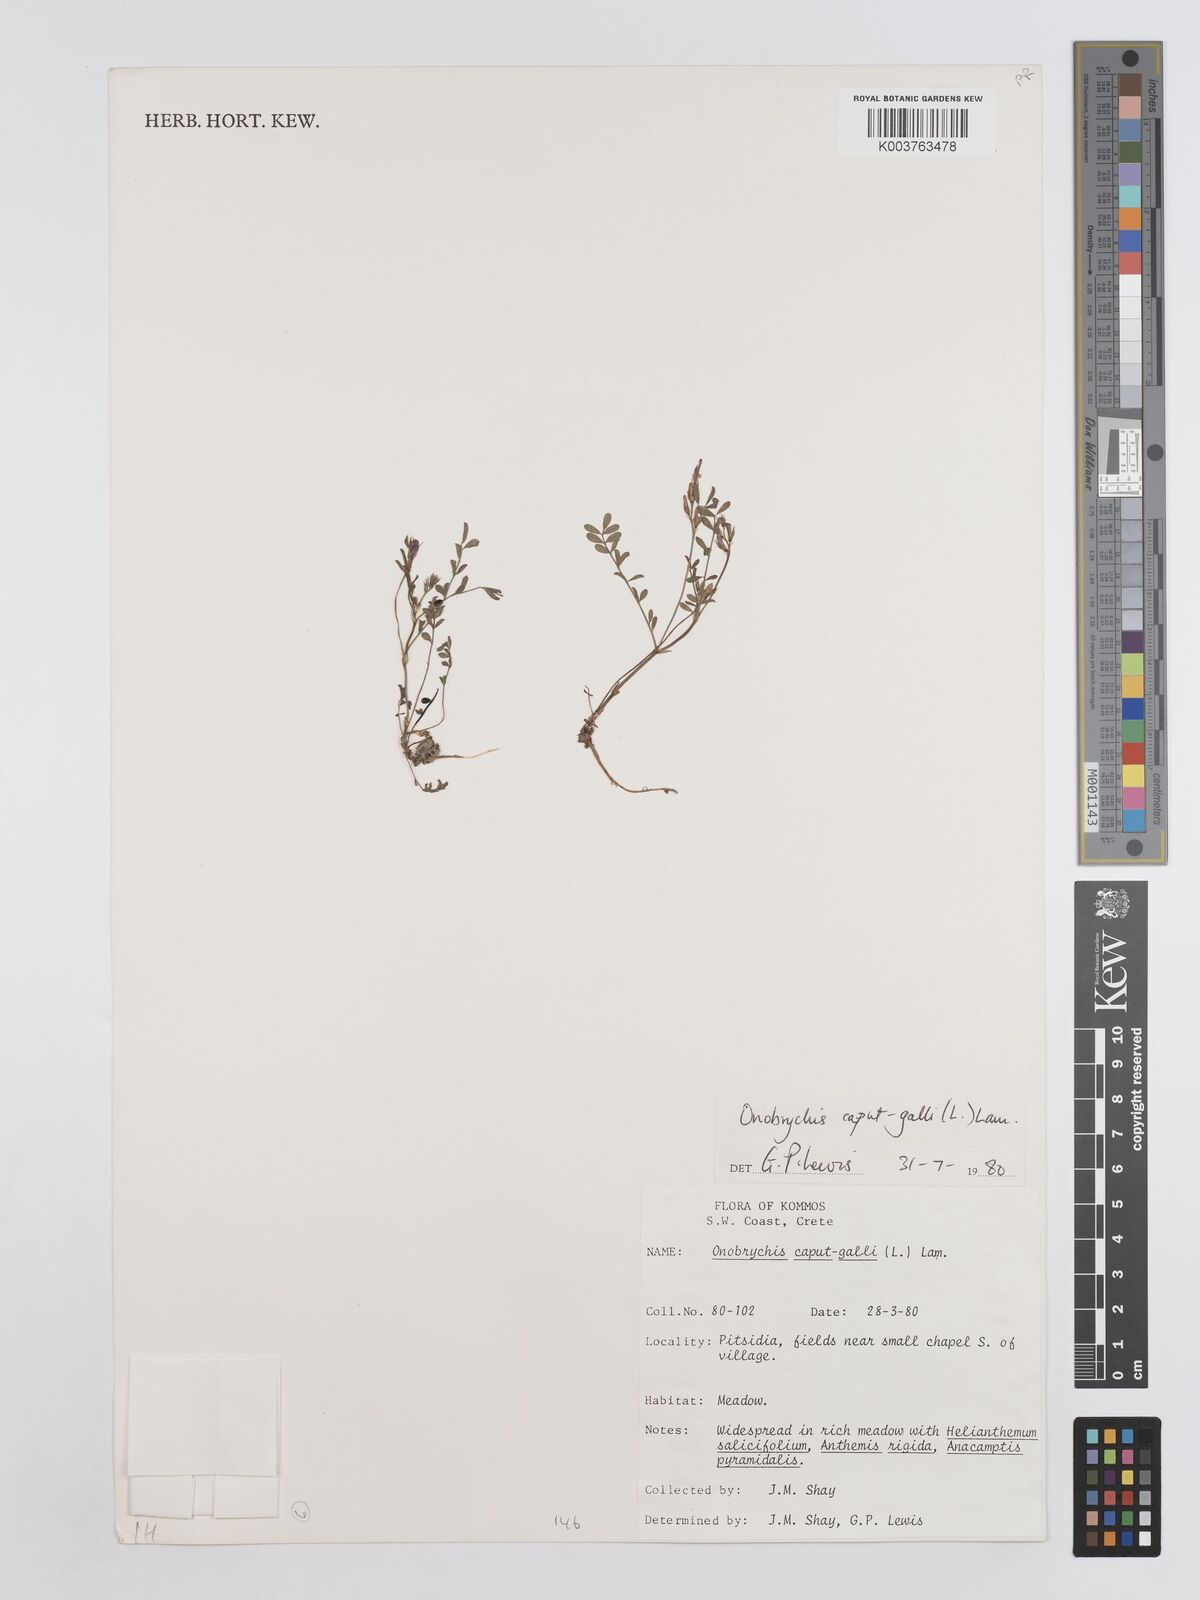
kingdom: Plantae
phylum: Tracheophyta
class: Magnoliopsida
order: Fabales
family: Fabaceae
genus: Onobrychis
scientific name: Onobrychis caput-galli
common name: Cockscomb sainfoin
